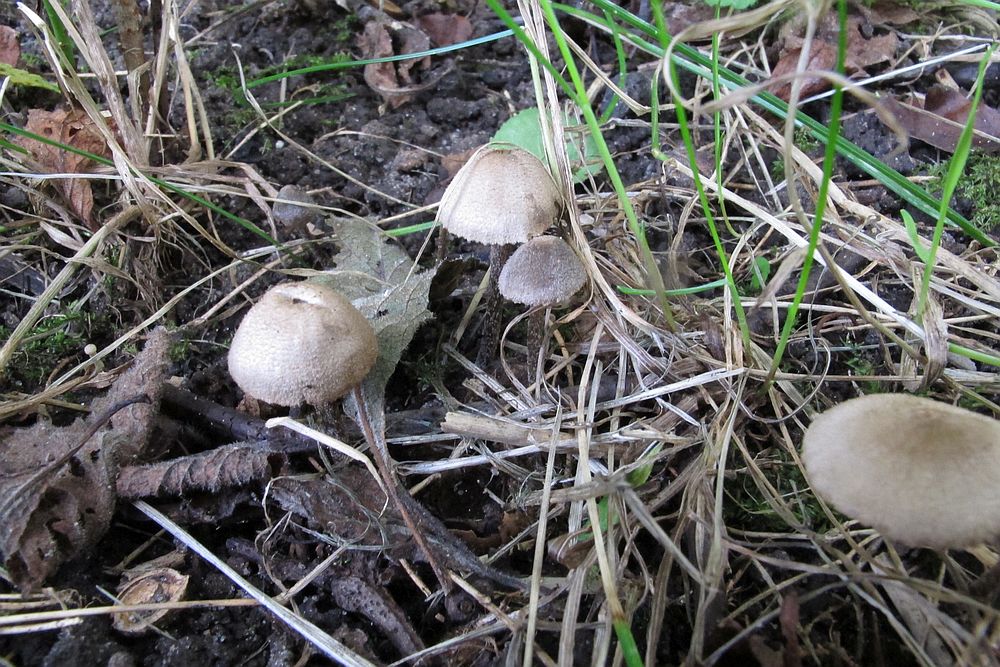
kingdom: Fungi
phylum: Basidiomycota
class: Agaricomycetes
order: Agaricales
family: Entolomataceae
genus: Entoloma
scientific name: Entoloma araneosum
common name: spindelvævs-rødblad
